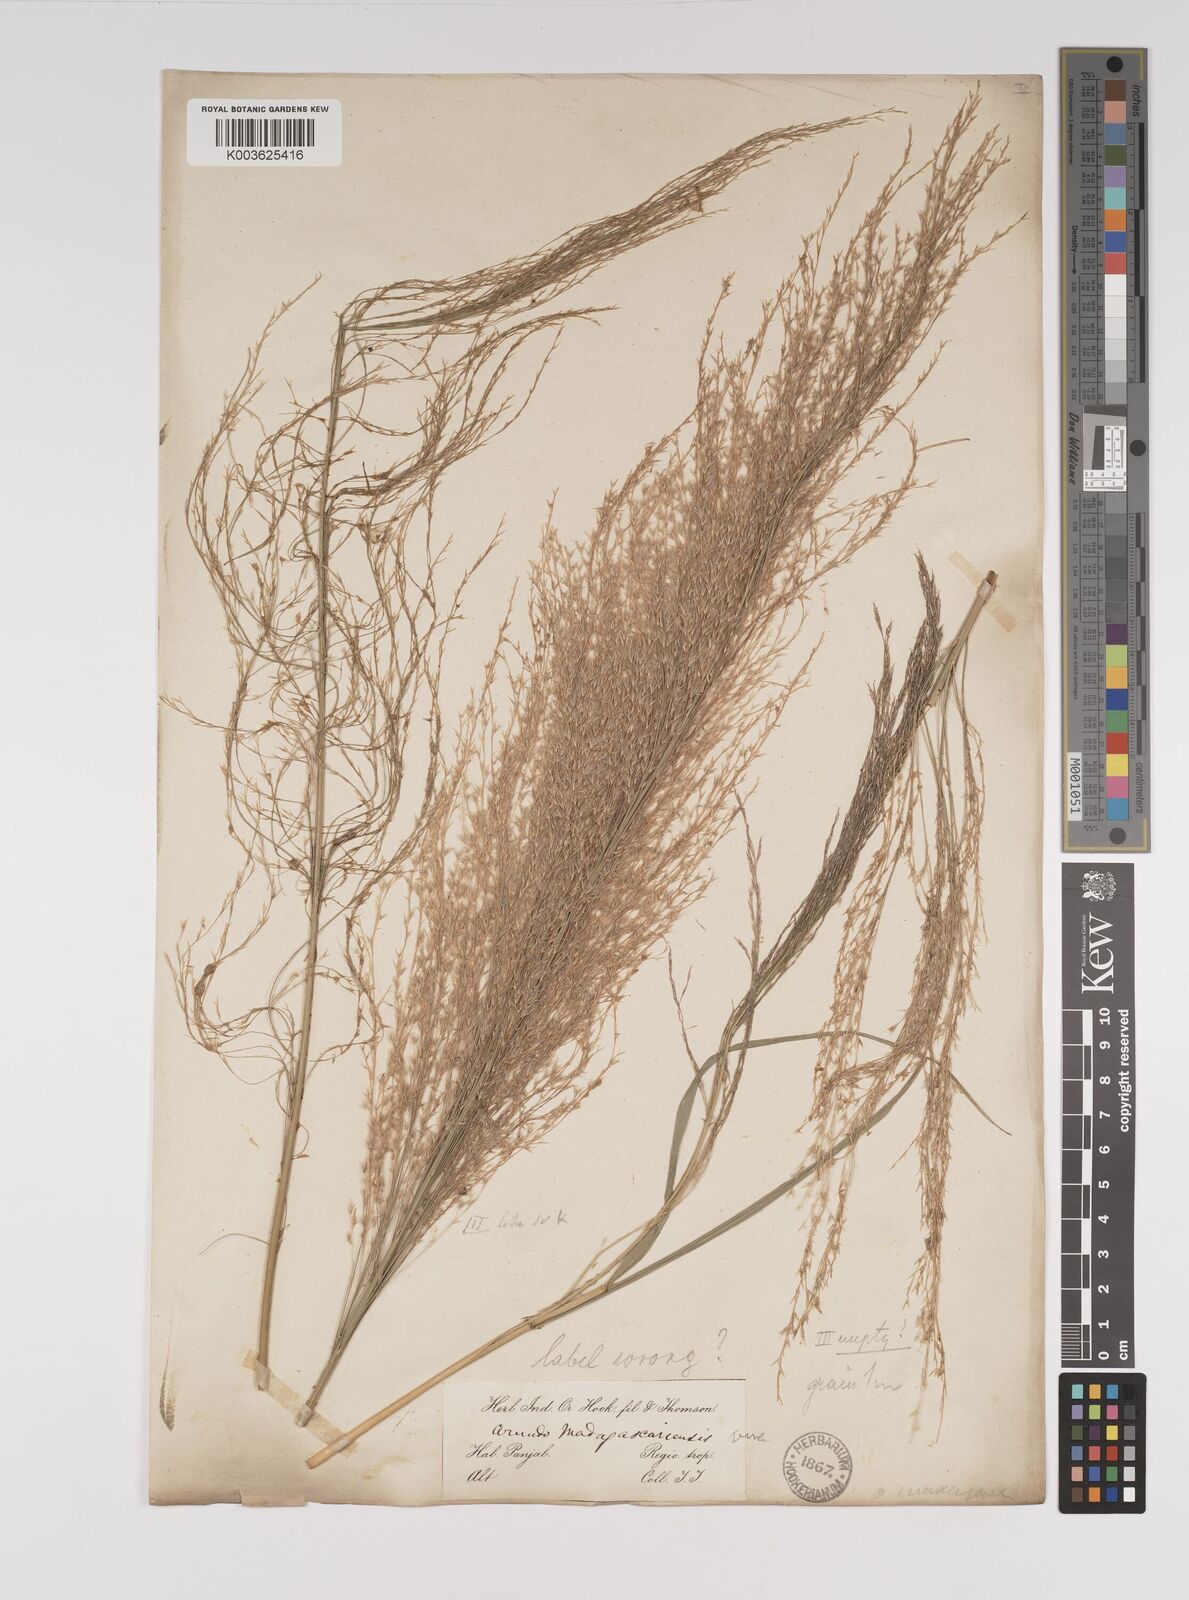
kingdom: Plantae
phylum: Tracheophyta
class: Liliopsida
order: Poales
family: Poaceae
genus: Neyraudia
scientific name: Neyraudia reynaudiana
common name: Silkreed
